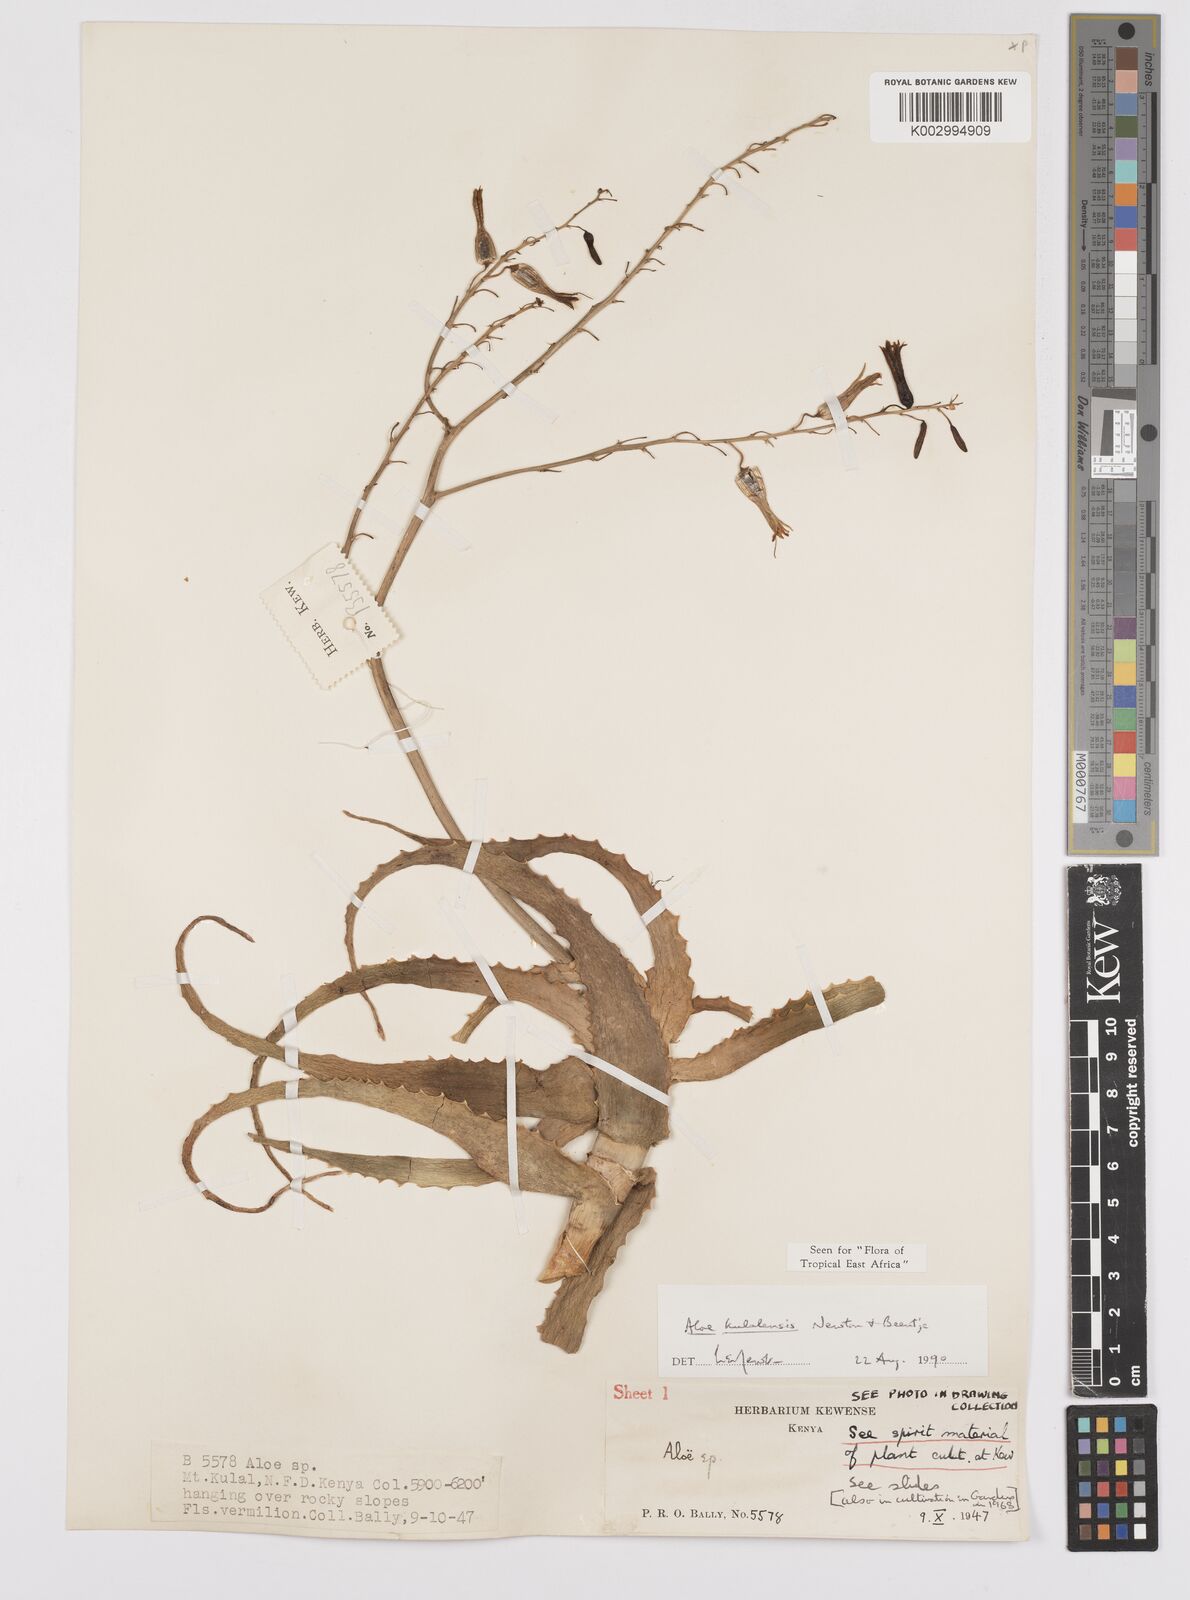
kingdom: Plantae
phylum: Tracheophyta
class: Liliopsida
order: Asparagales
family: Asphodelaceae
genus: Aloe
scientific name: Aloe kulalensis
